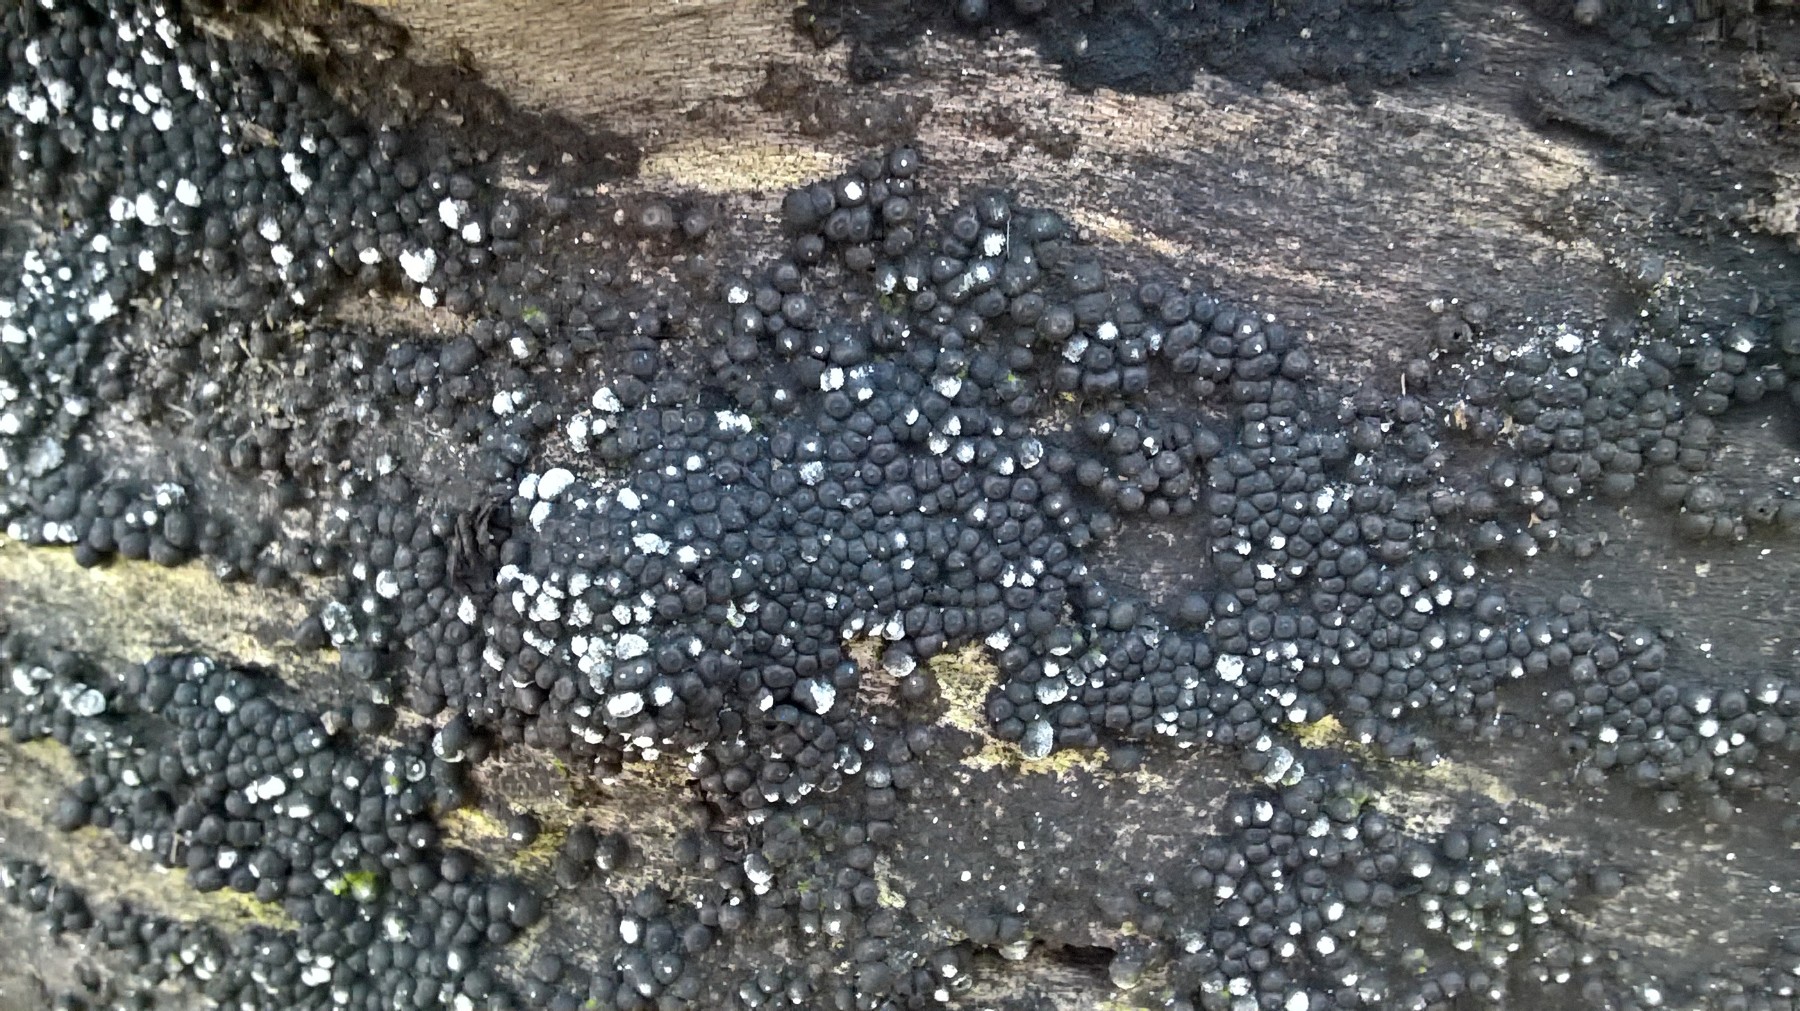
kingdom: Fungi
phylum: Ascomycota
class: Sordariomycetes
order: Xylariales
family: Xylariaceae
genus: Rosellinia
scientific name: Rosellinia
